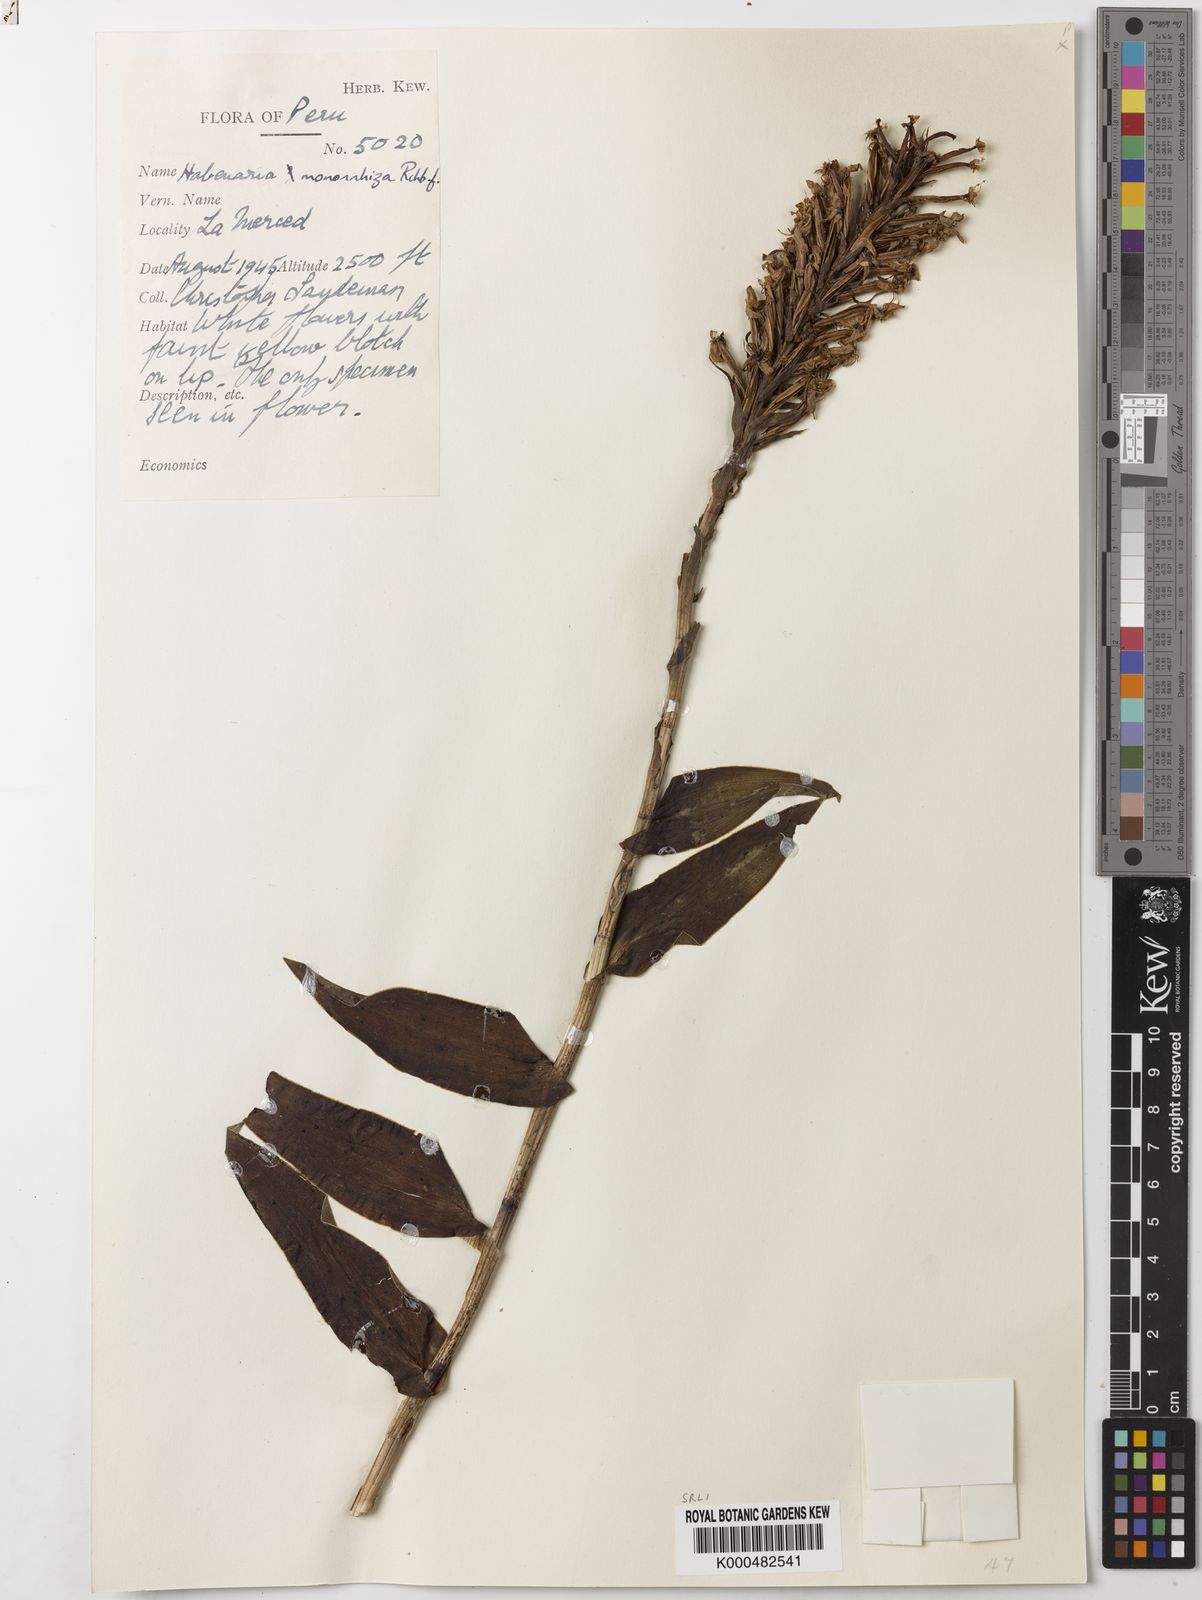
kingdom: Plantae
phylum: Tracheophyta
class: Liliopsida
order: Asparagales
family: Orchidaceae
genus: Habenaria
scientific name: Habenaria monorrhiza
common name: Tropical bog orchid
